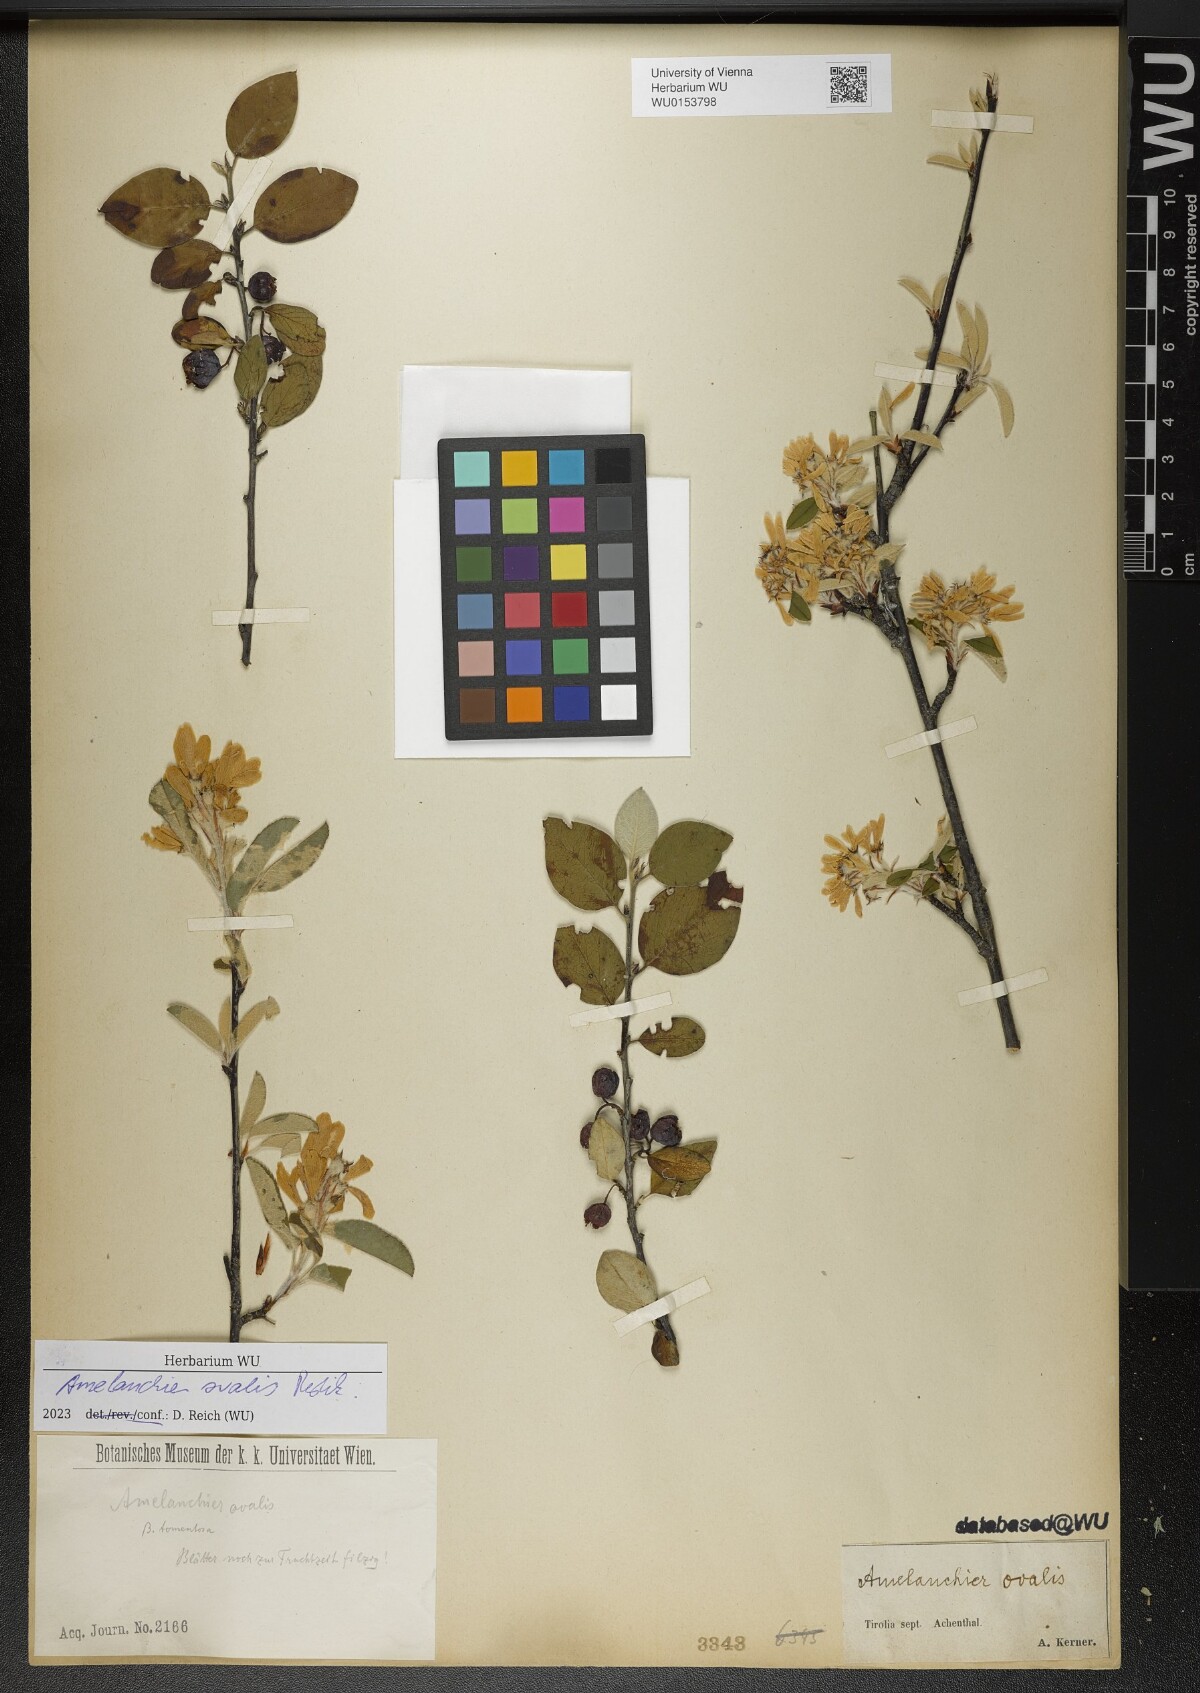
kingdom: Plantae
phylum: Tracheophyta
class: Magnoliopsida
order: Rosales
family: Rosaceae
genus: Amelanchier
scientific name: Amelanchier ovalis
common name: Serviceberry
